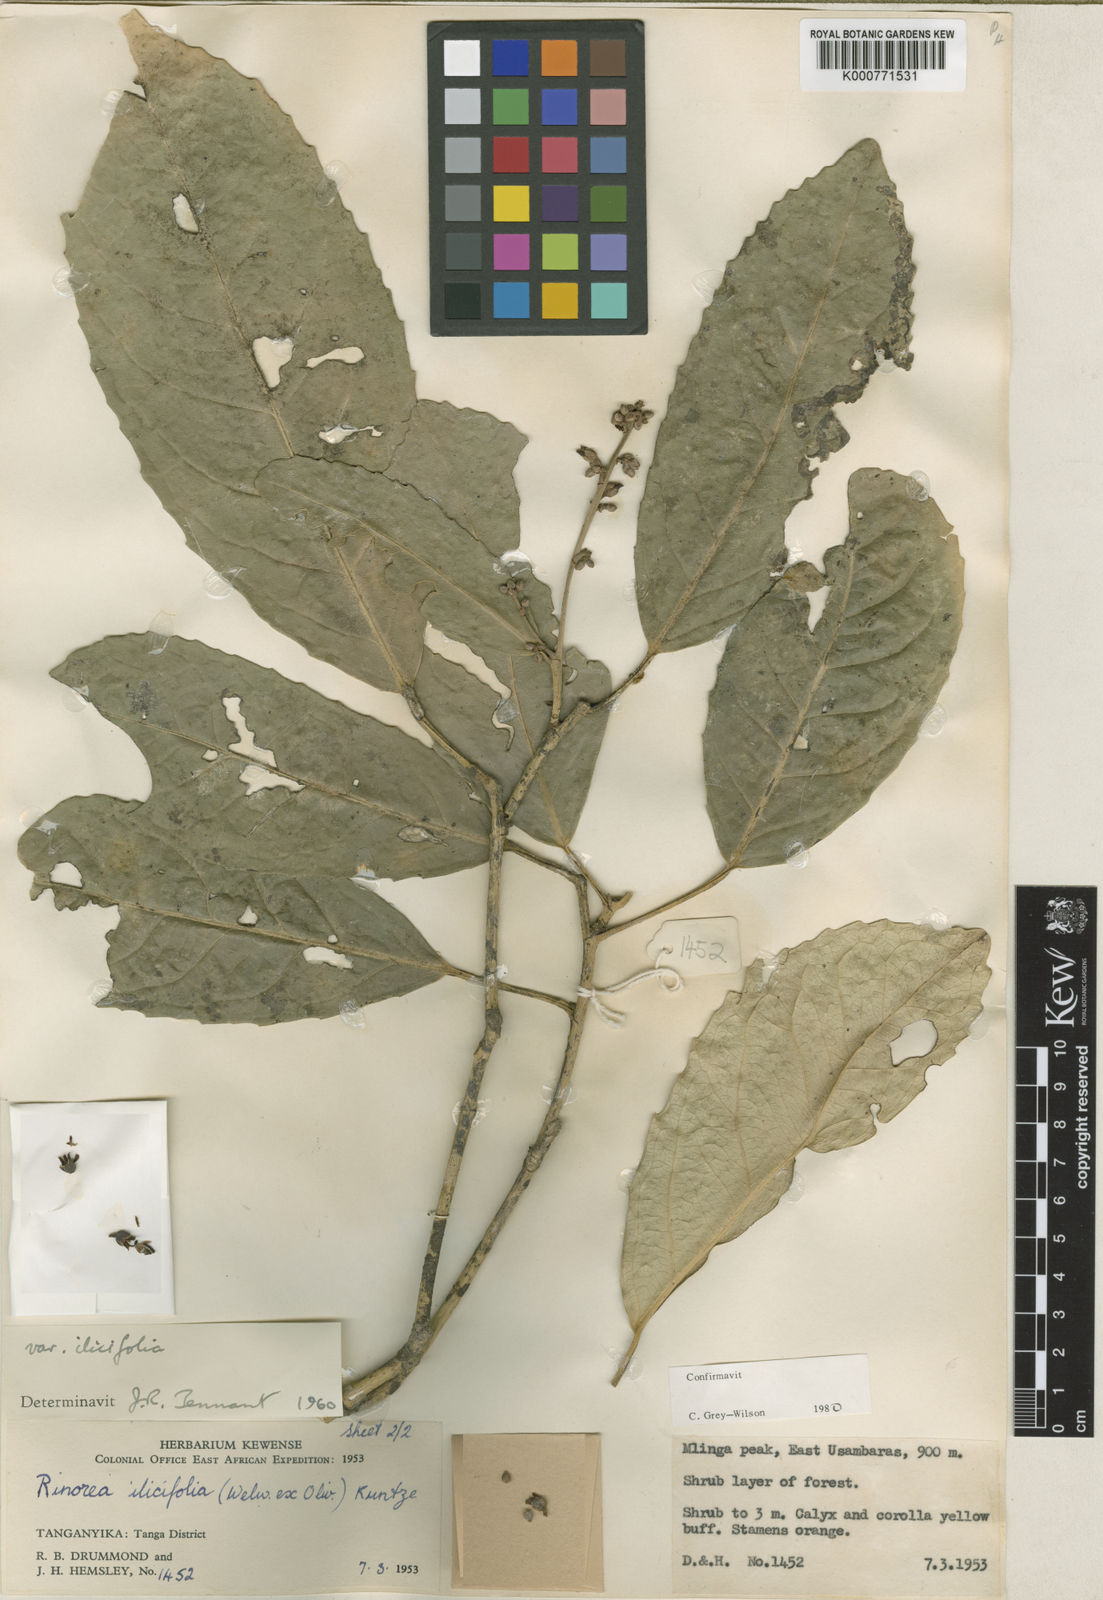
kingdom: Plantae
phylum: Tracheophyta
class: Magnoliopsida
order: Malpighiales
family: Violaceae
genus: Rinorea
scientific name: Rinorea ilicifolia
